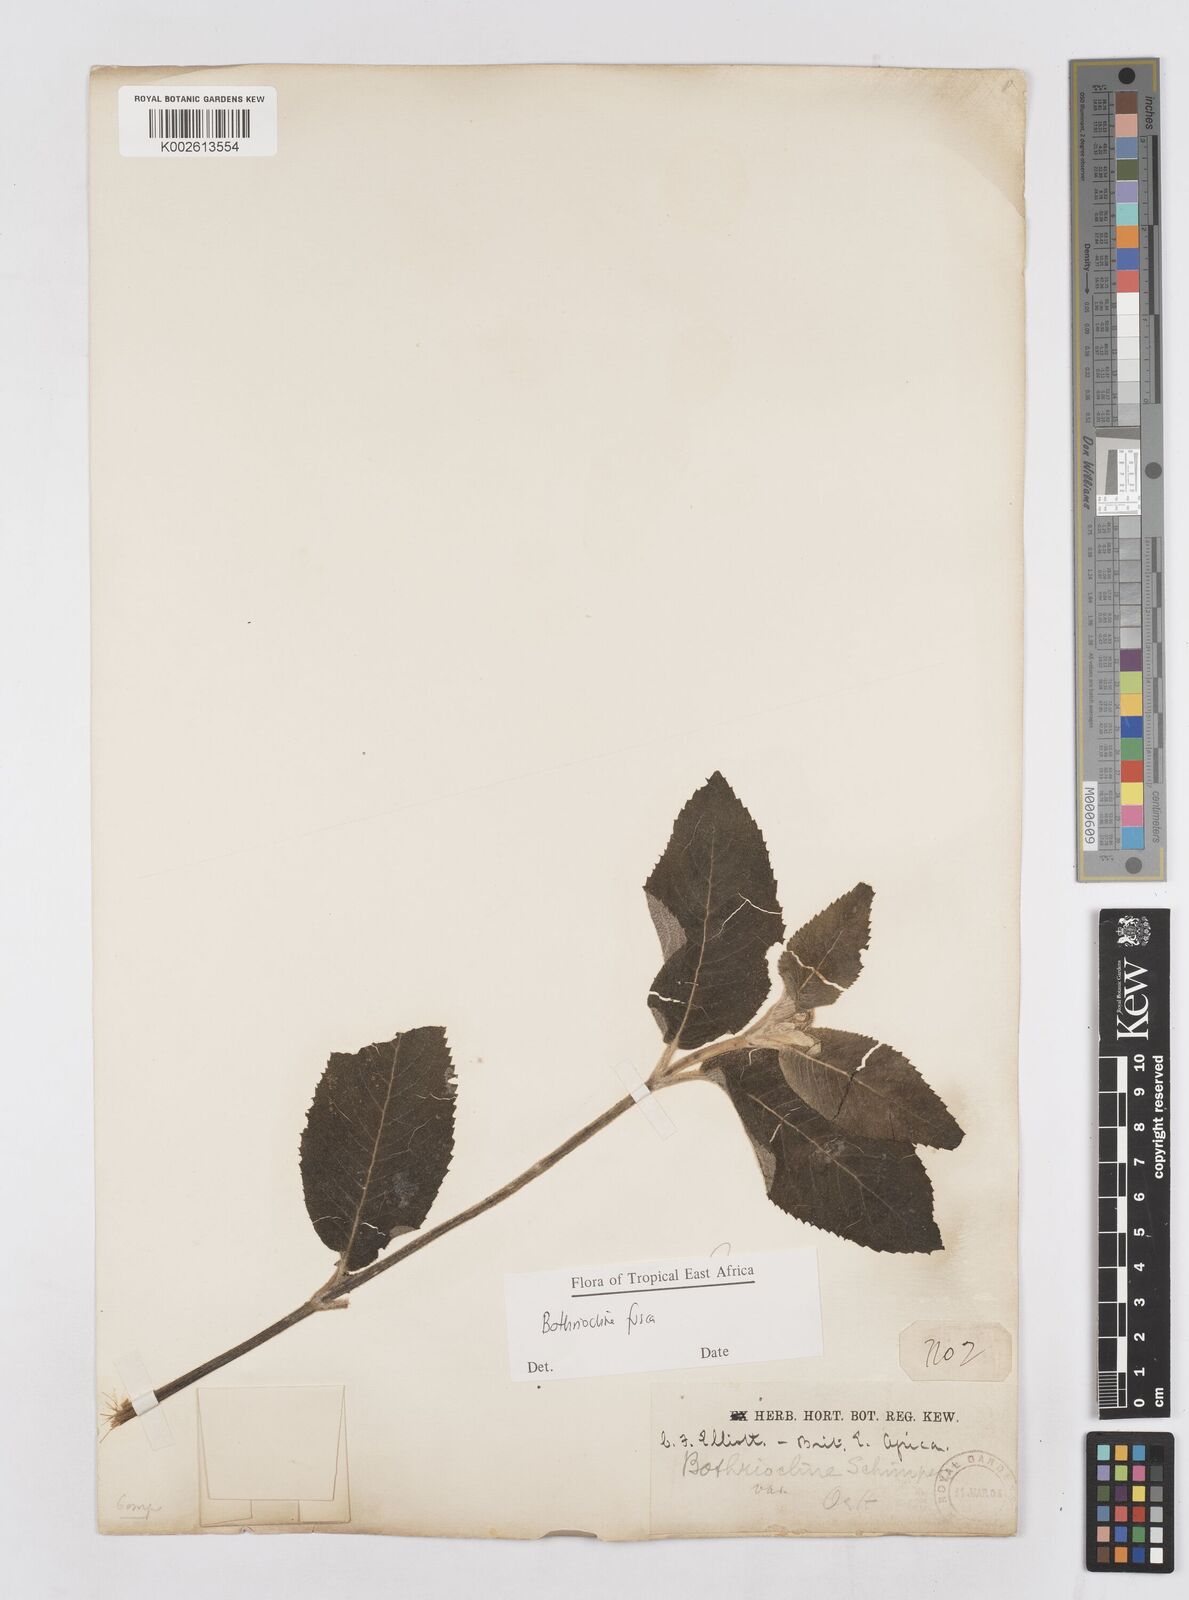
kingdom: Plantae
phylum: Tracheophyta
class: Magnoliopsida
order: Asterales
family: Asteraceae
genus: Bothriocline
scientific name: Bothriocline fusca
